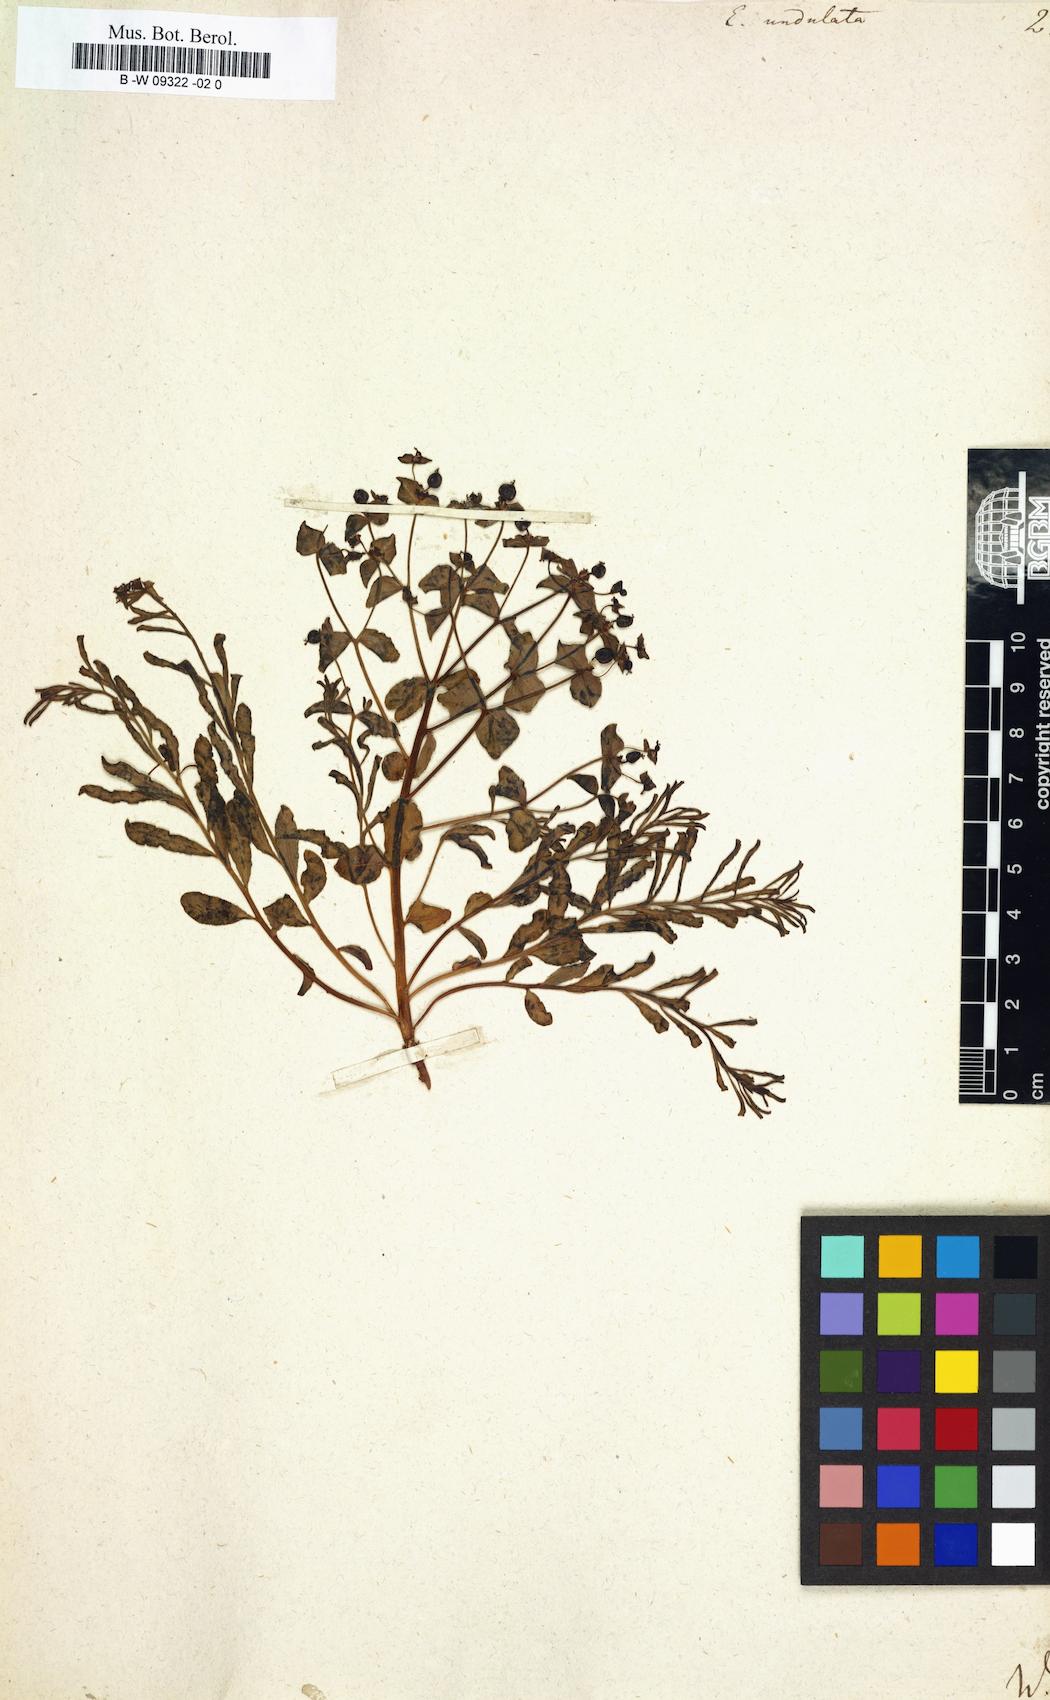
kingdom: Plantae
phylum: Tracheophyta
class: Magnoliopsida
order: Malpighiales
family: Euphorbiaceae
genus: Euphorbia
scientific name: Euphorbia undulata
